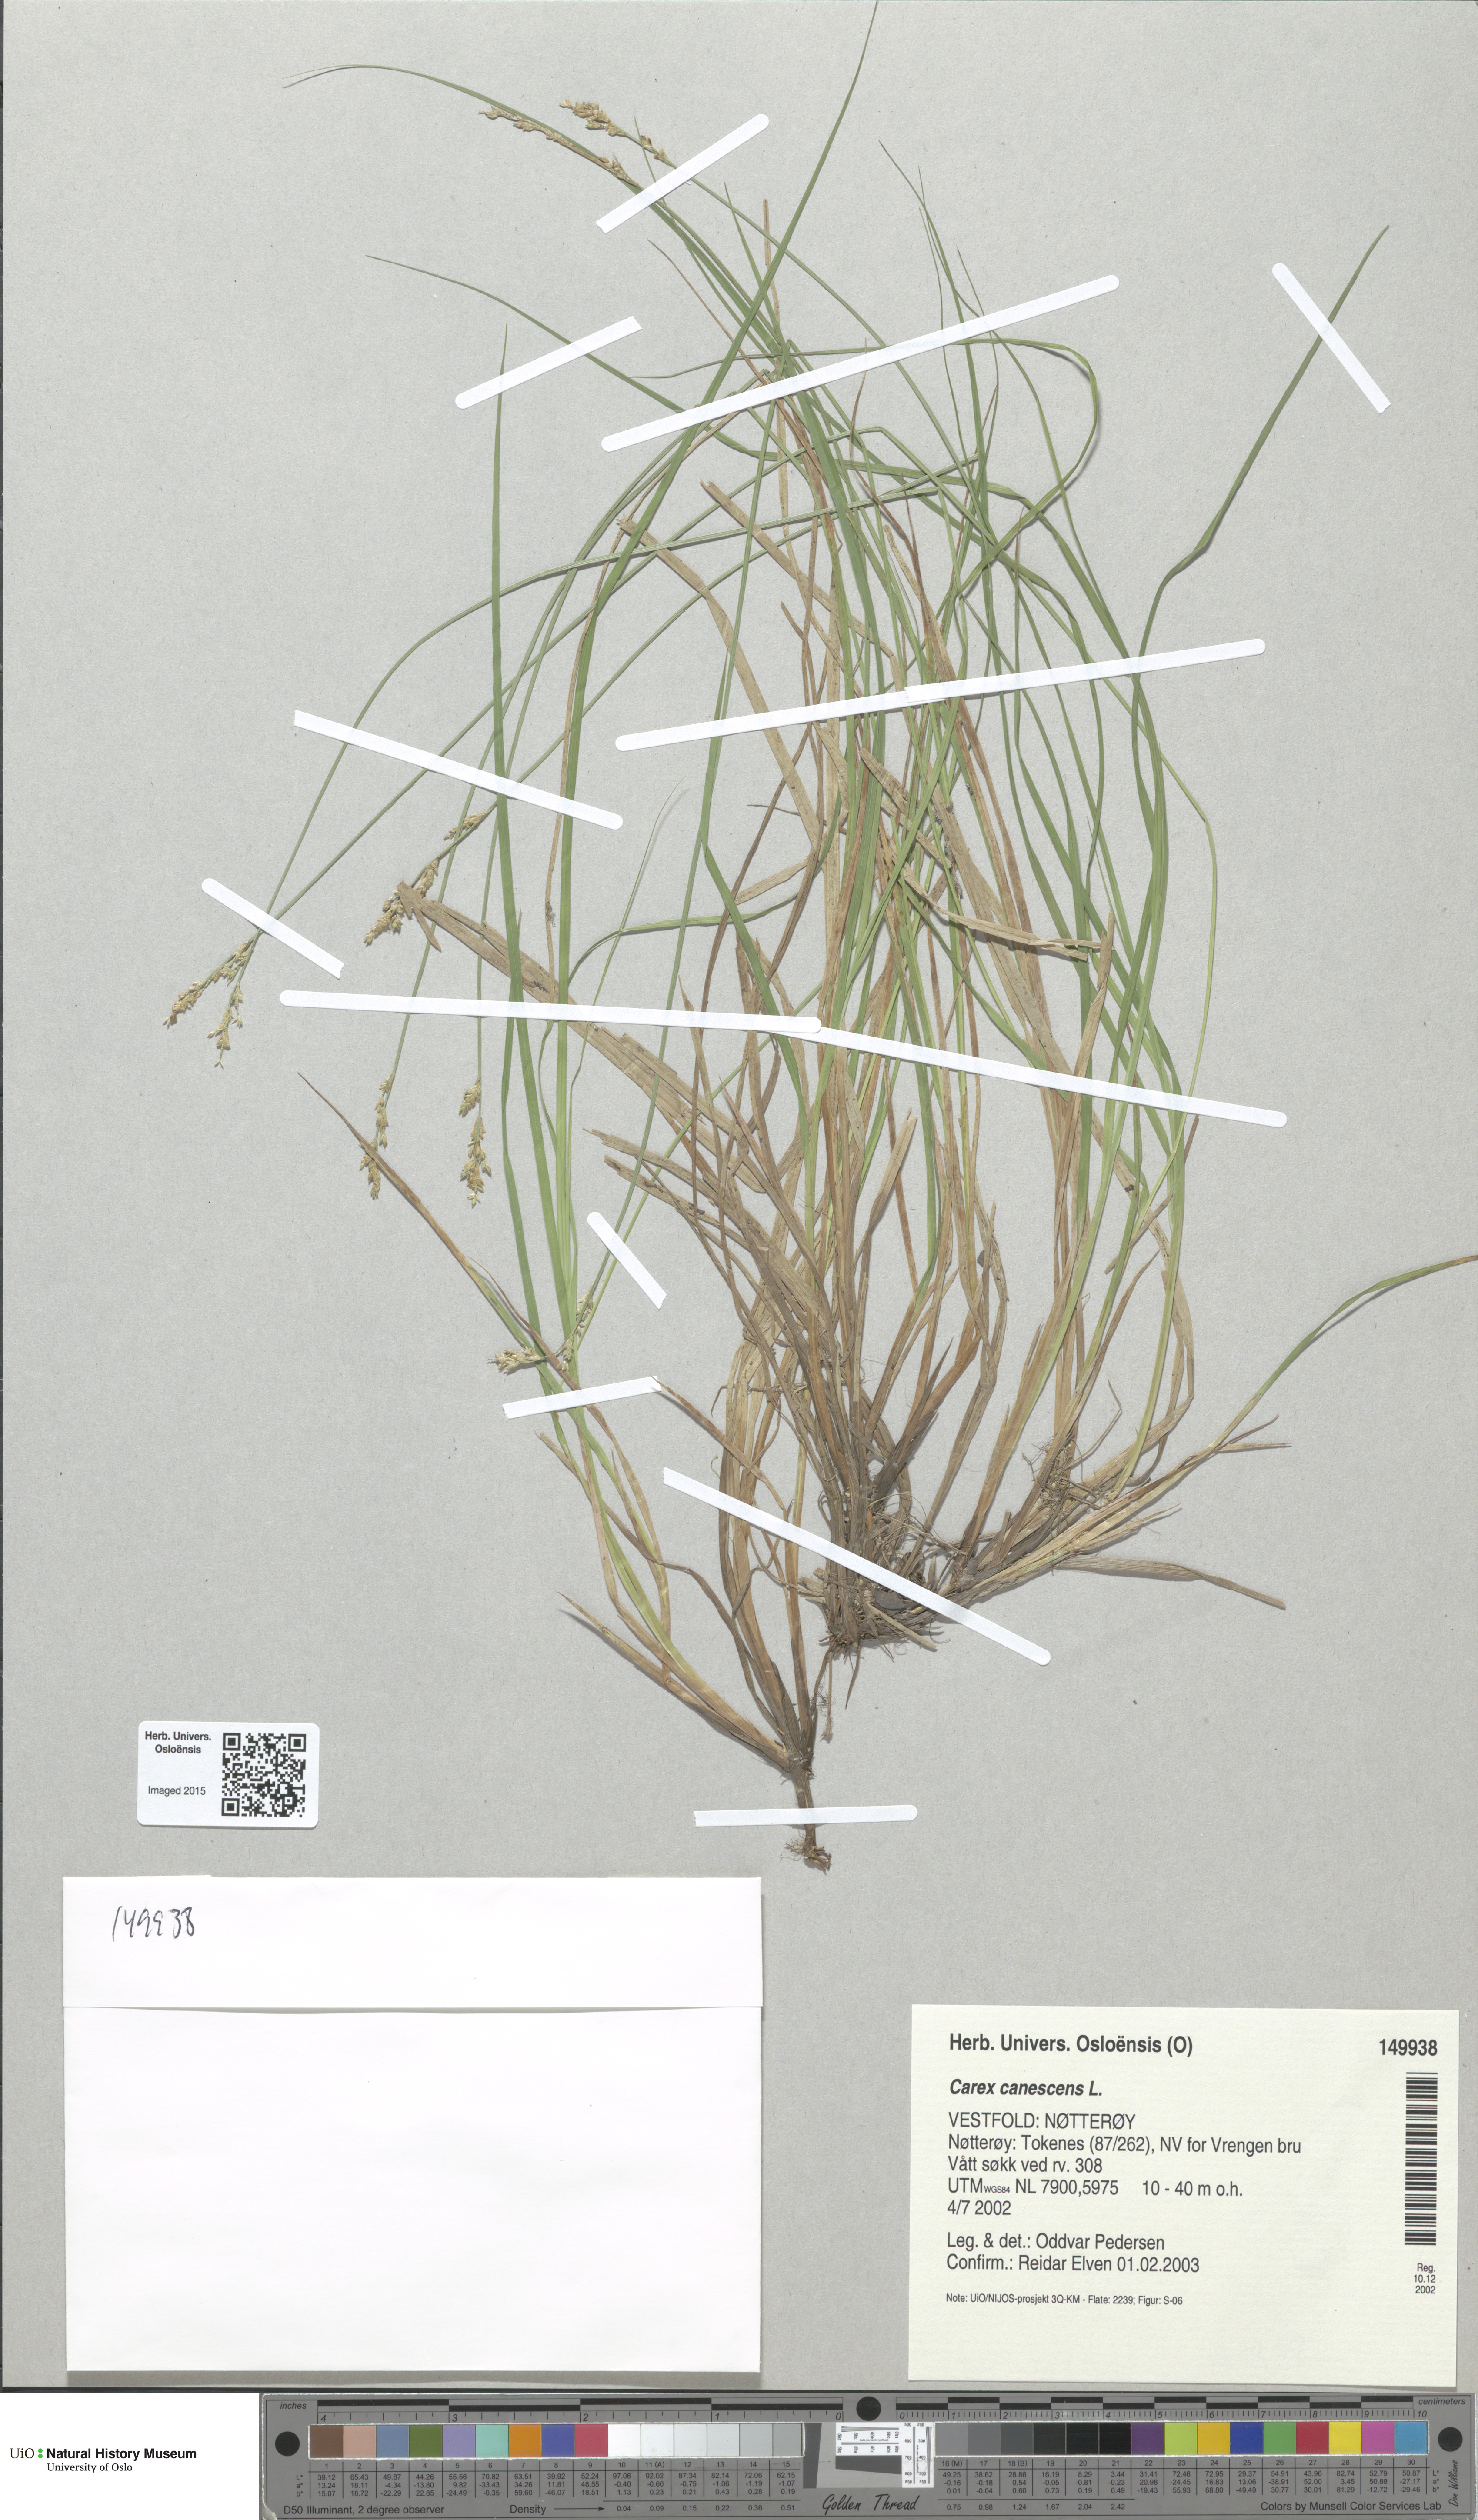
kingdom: Plantae
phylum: Tracheophyta
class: Liliopsida
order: Poales
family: Cyperaceae
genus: Carex
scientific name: Carex canescens
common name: White sedge
